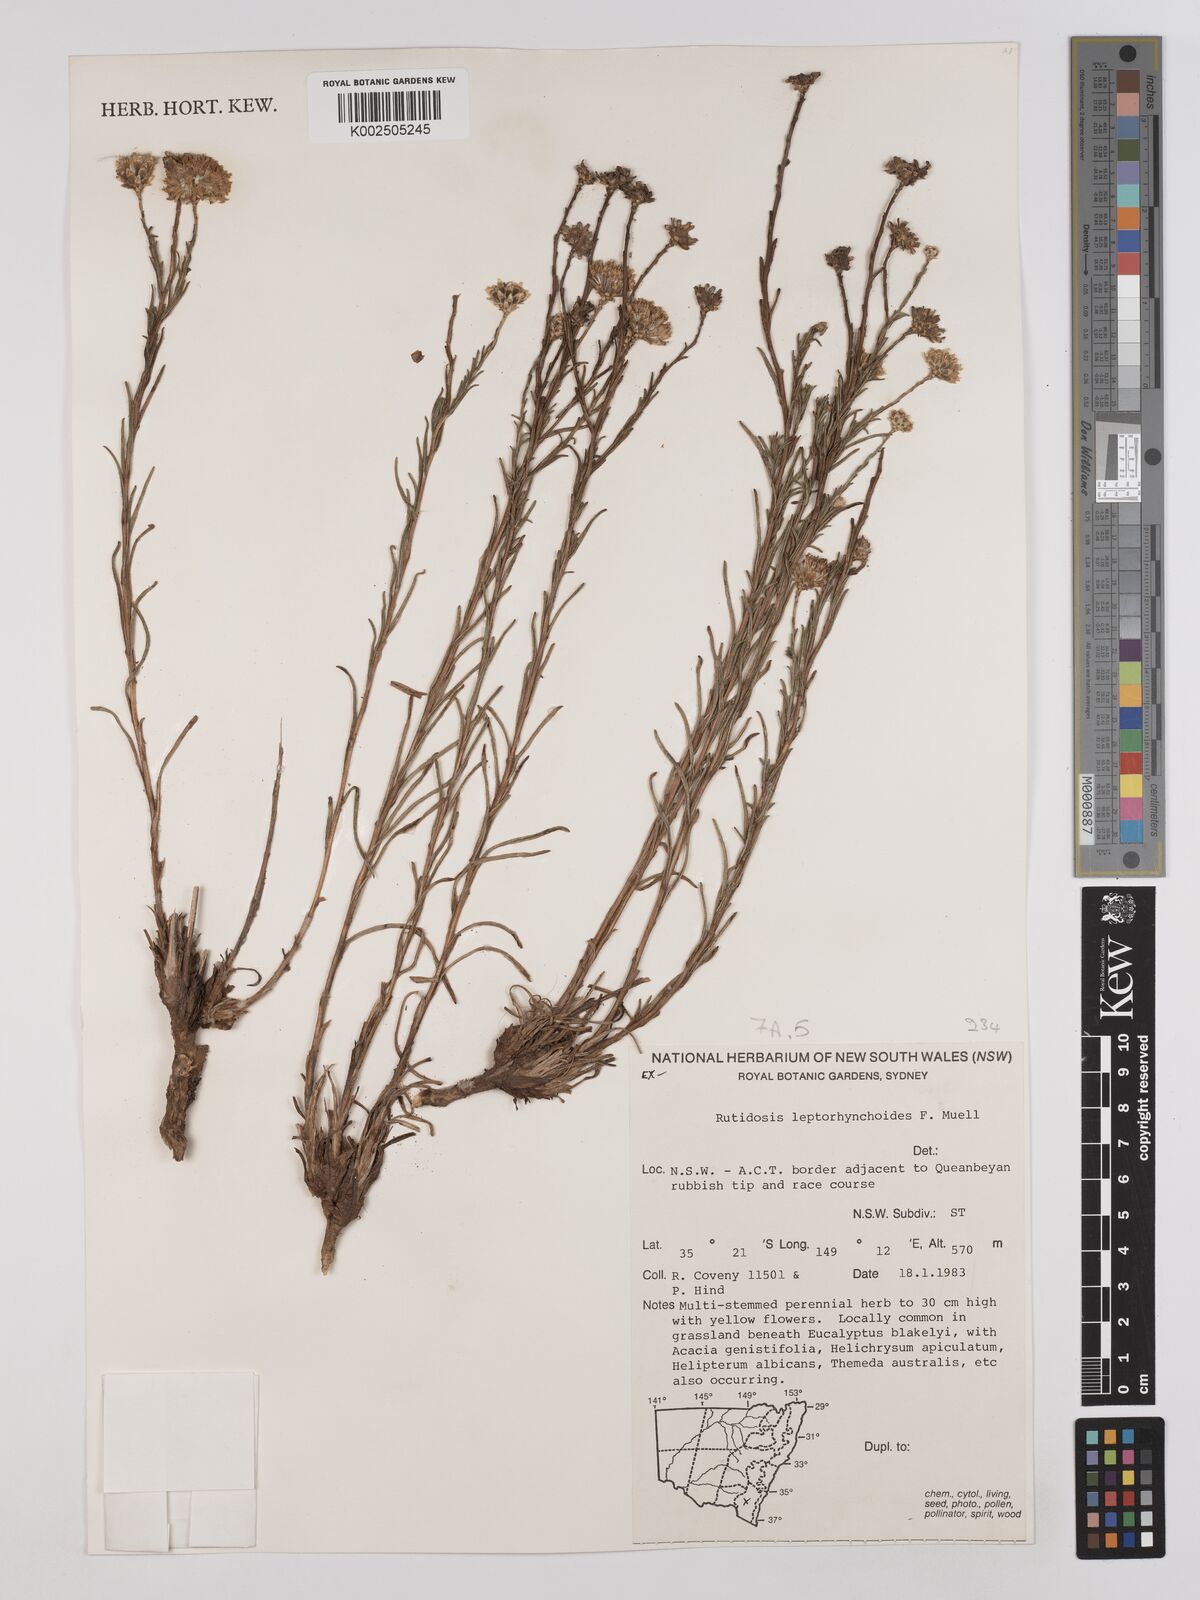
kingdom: Plantae
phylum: Tracheophyta
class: Magnoliopsida
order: Asterales
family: Asteraceae
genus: Rutidosis
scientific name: Rutidosis leptorrhynchoides
